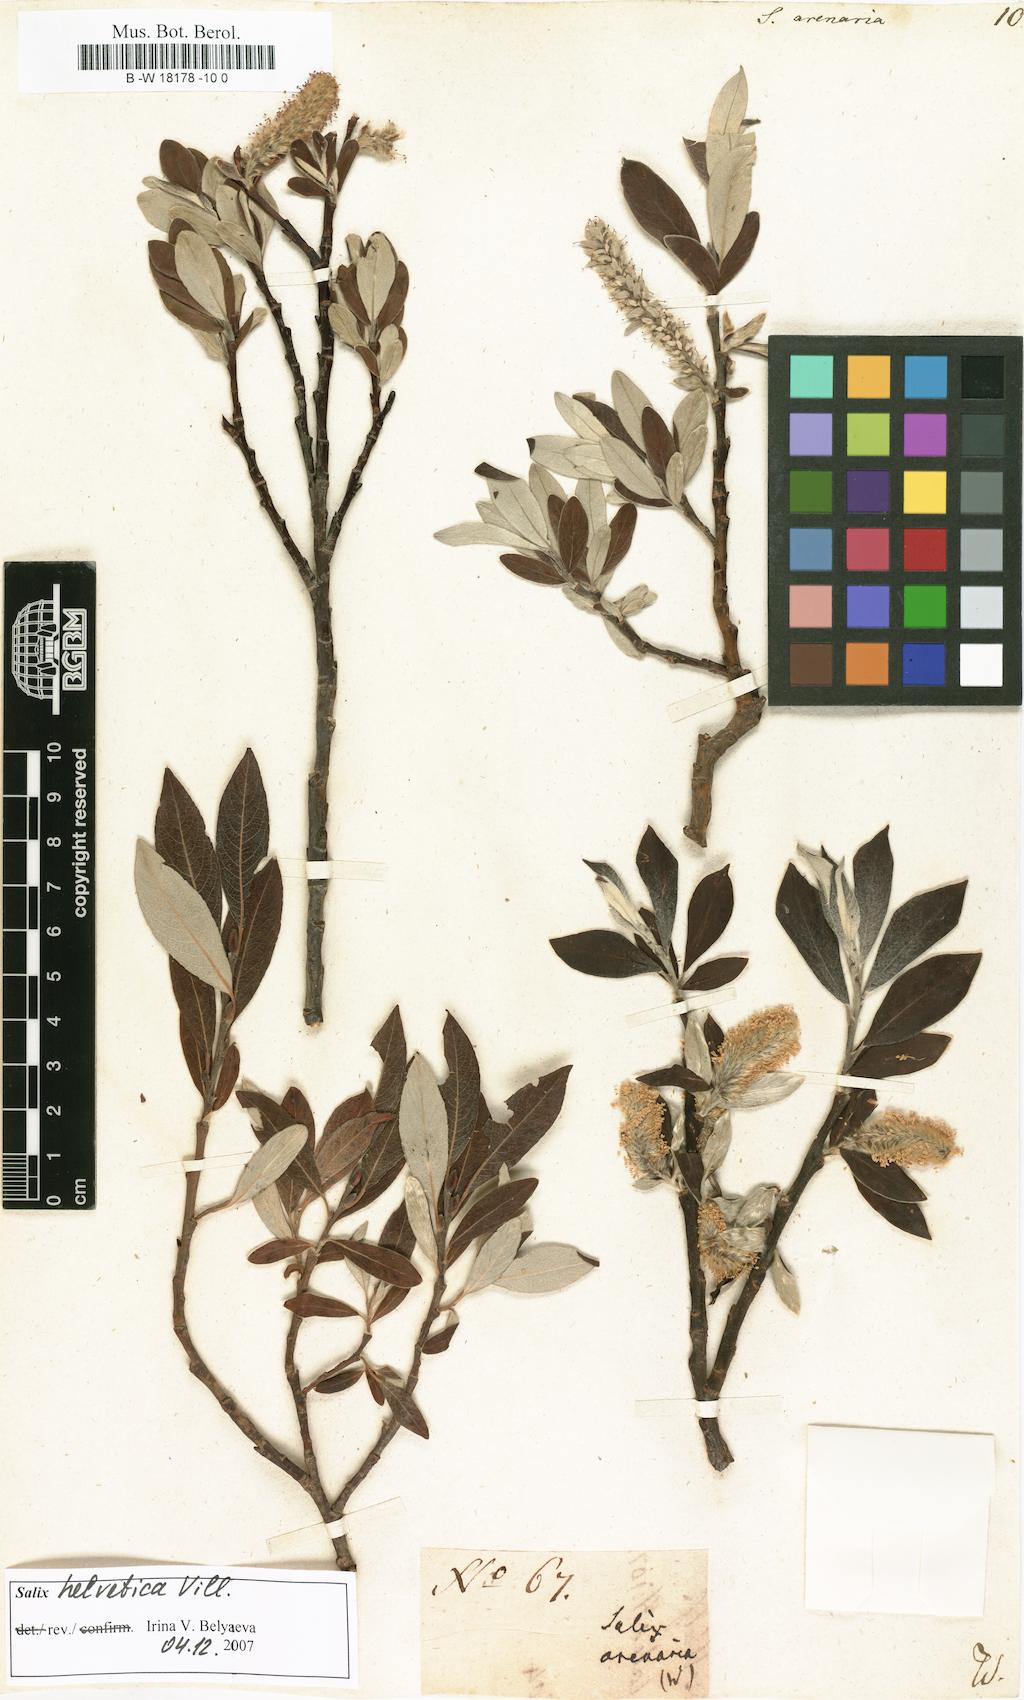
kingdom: Plantae
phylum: Tracheophyta
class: Magnoliopsida
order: Malpighiales
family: Salicaceae
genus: Salix
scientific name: Salix
